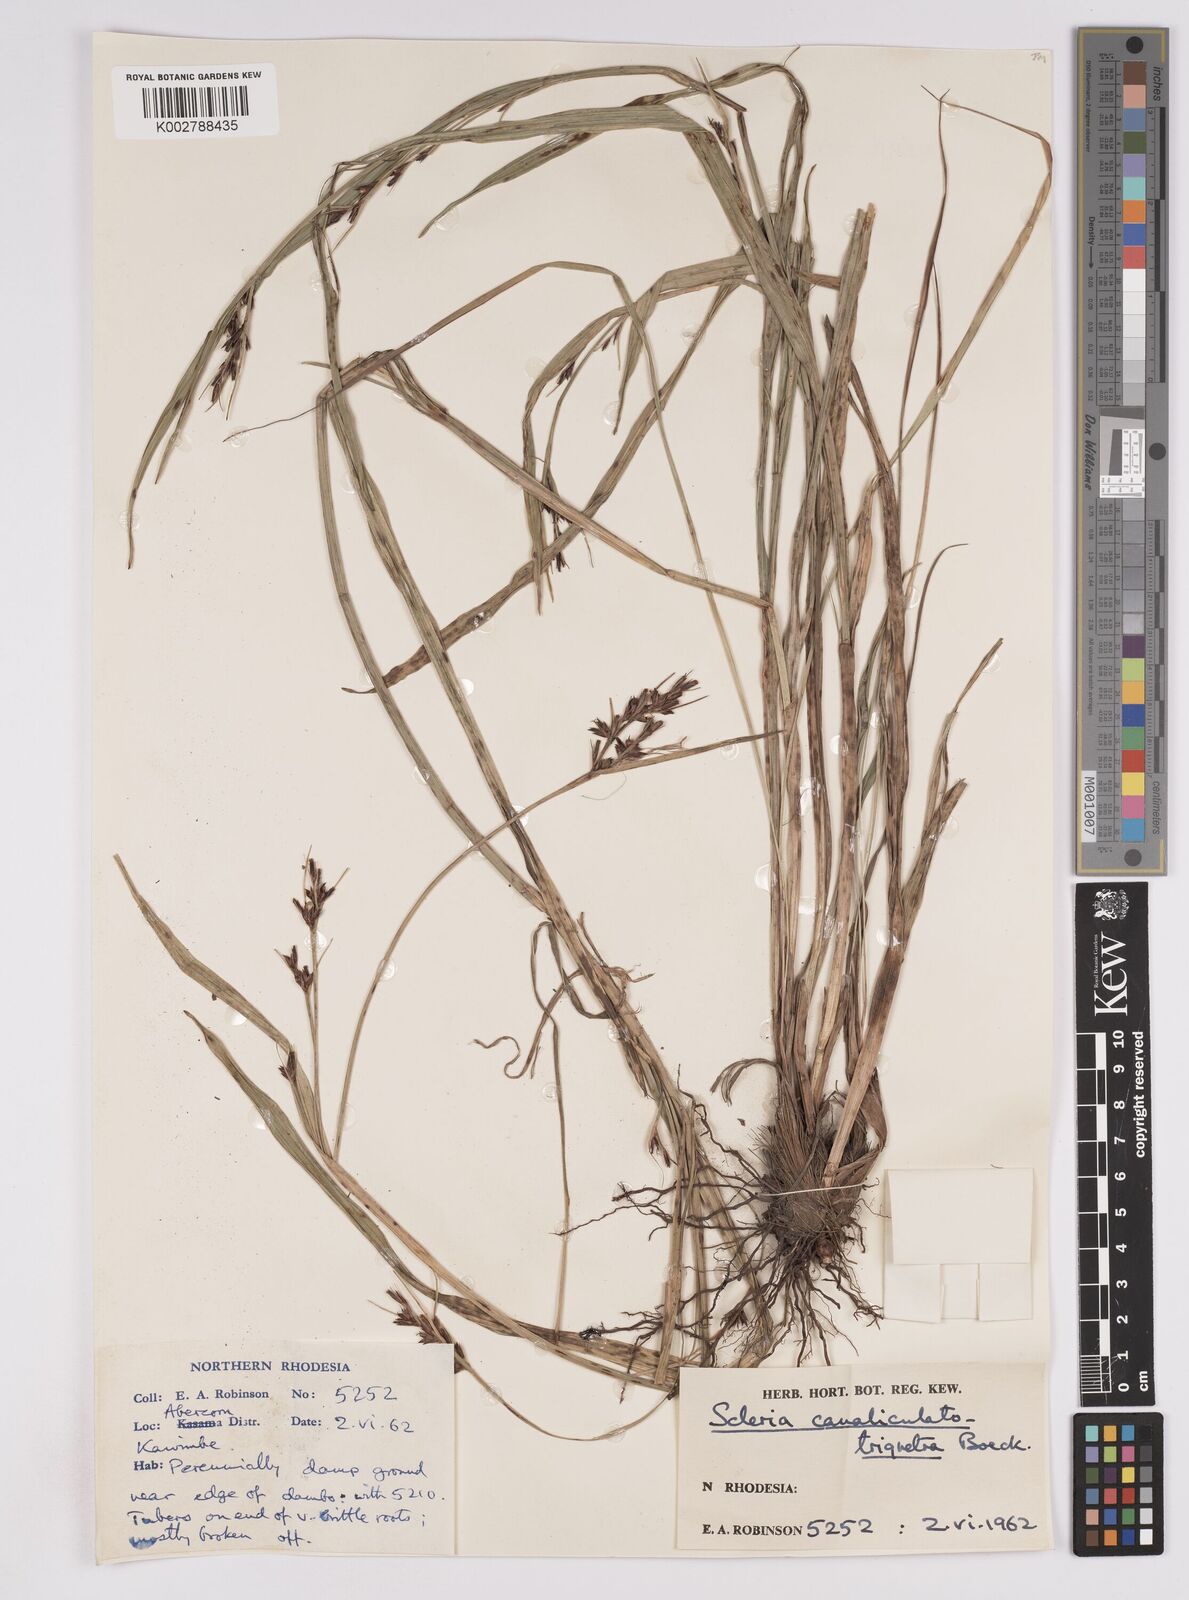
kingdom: Plantae
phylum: Tracheophyta
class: Liliopsida
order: Poales
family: Cyperaceae
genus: Scleria
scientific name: Scleria lagoensis
